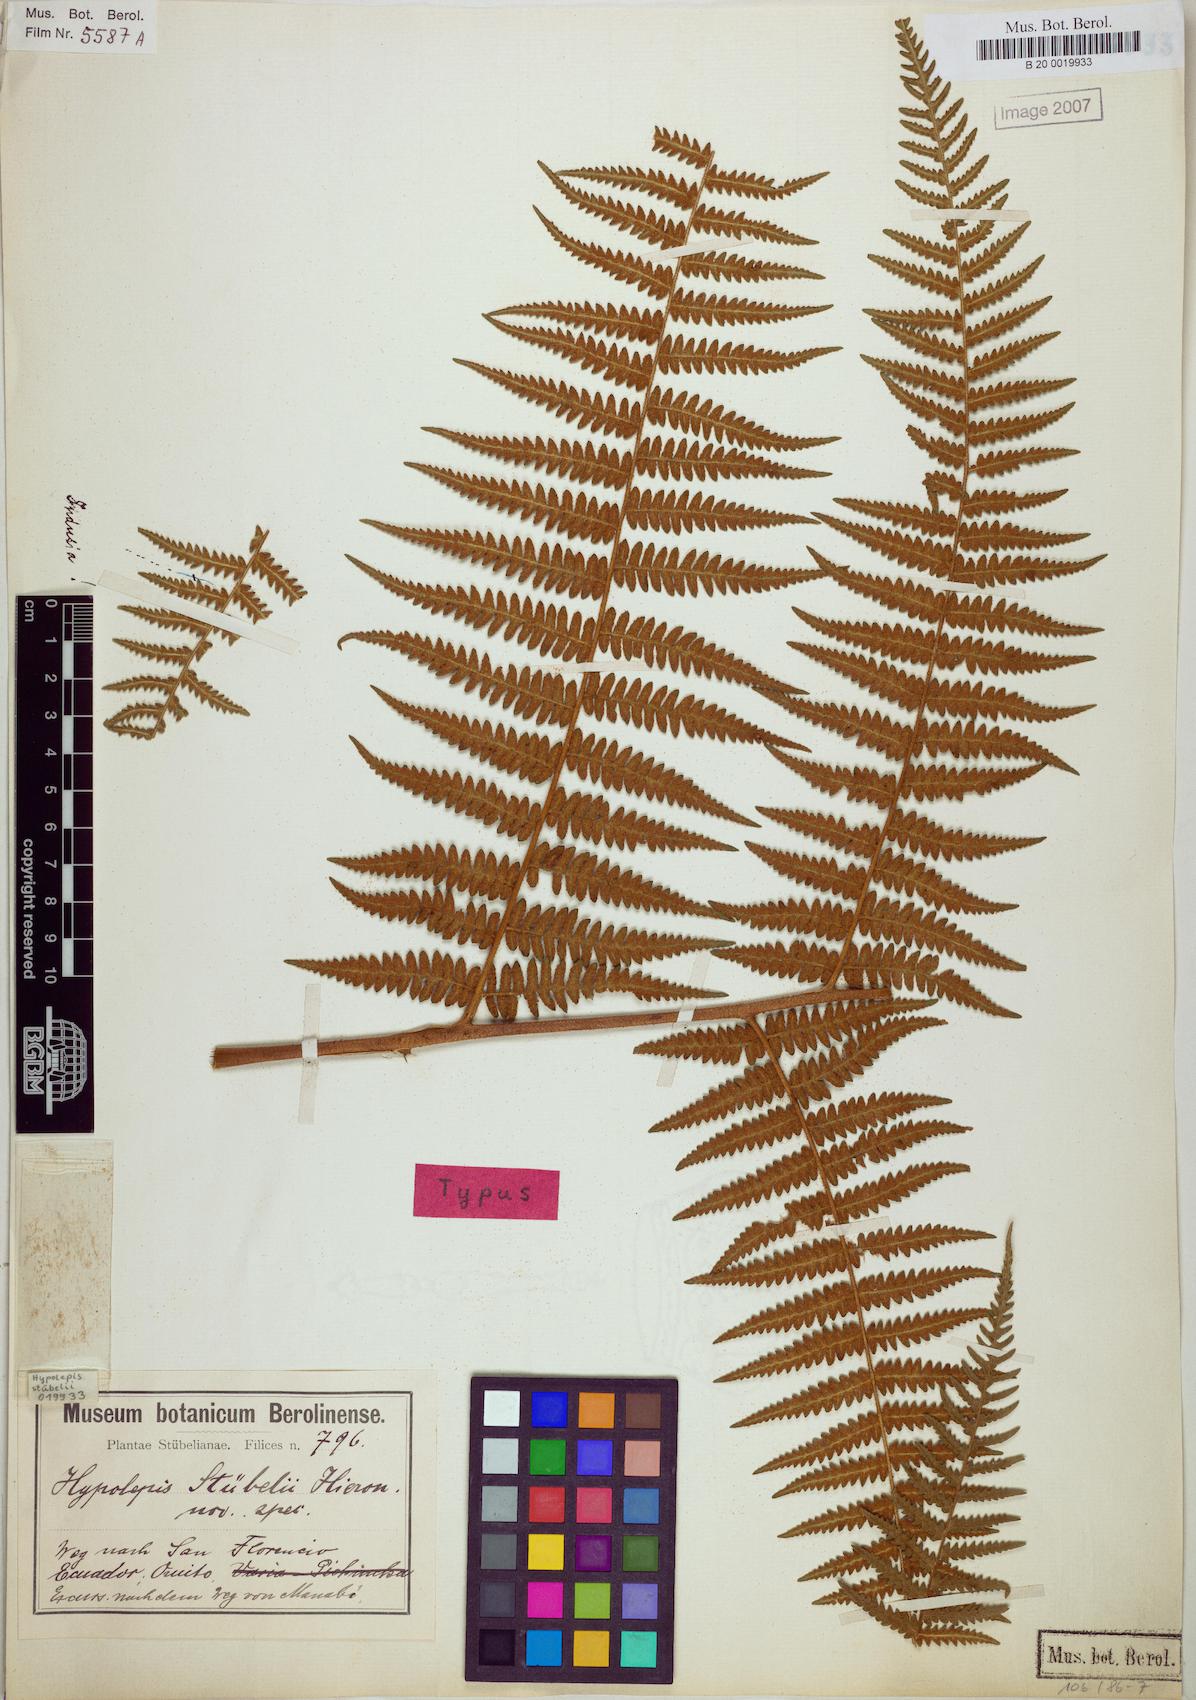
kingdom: Plantae
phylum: Tracheophyta
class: Polypodiopsida
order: Polypodiales
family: Dennstaedtiaceae
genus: Hypolepis
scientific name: Hypolepis stuebelii
